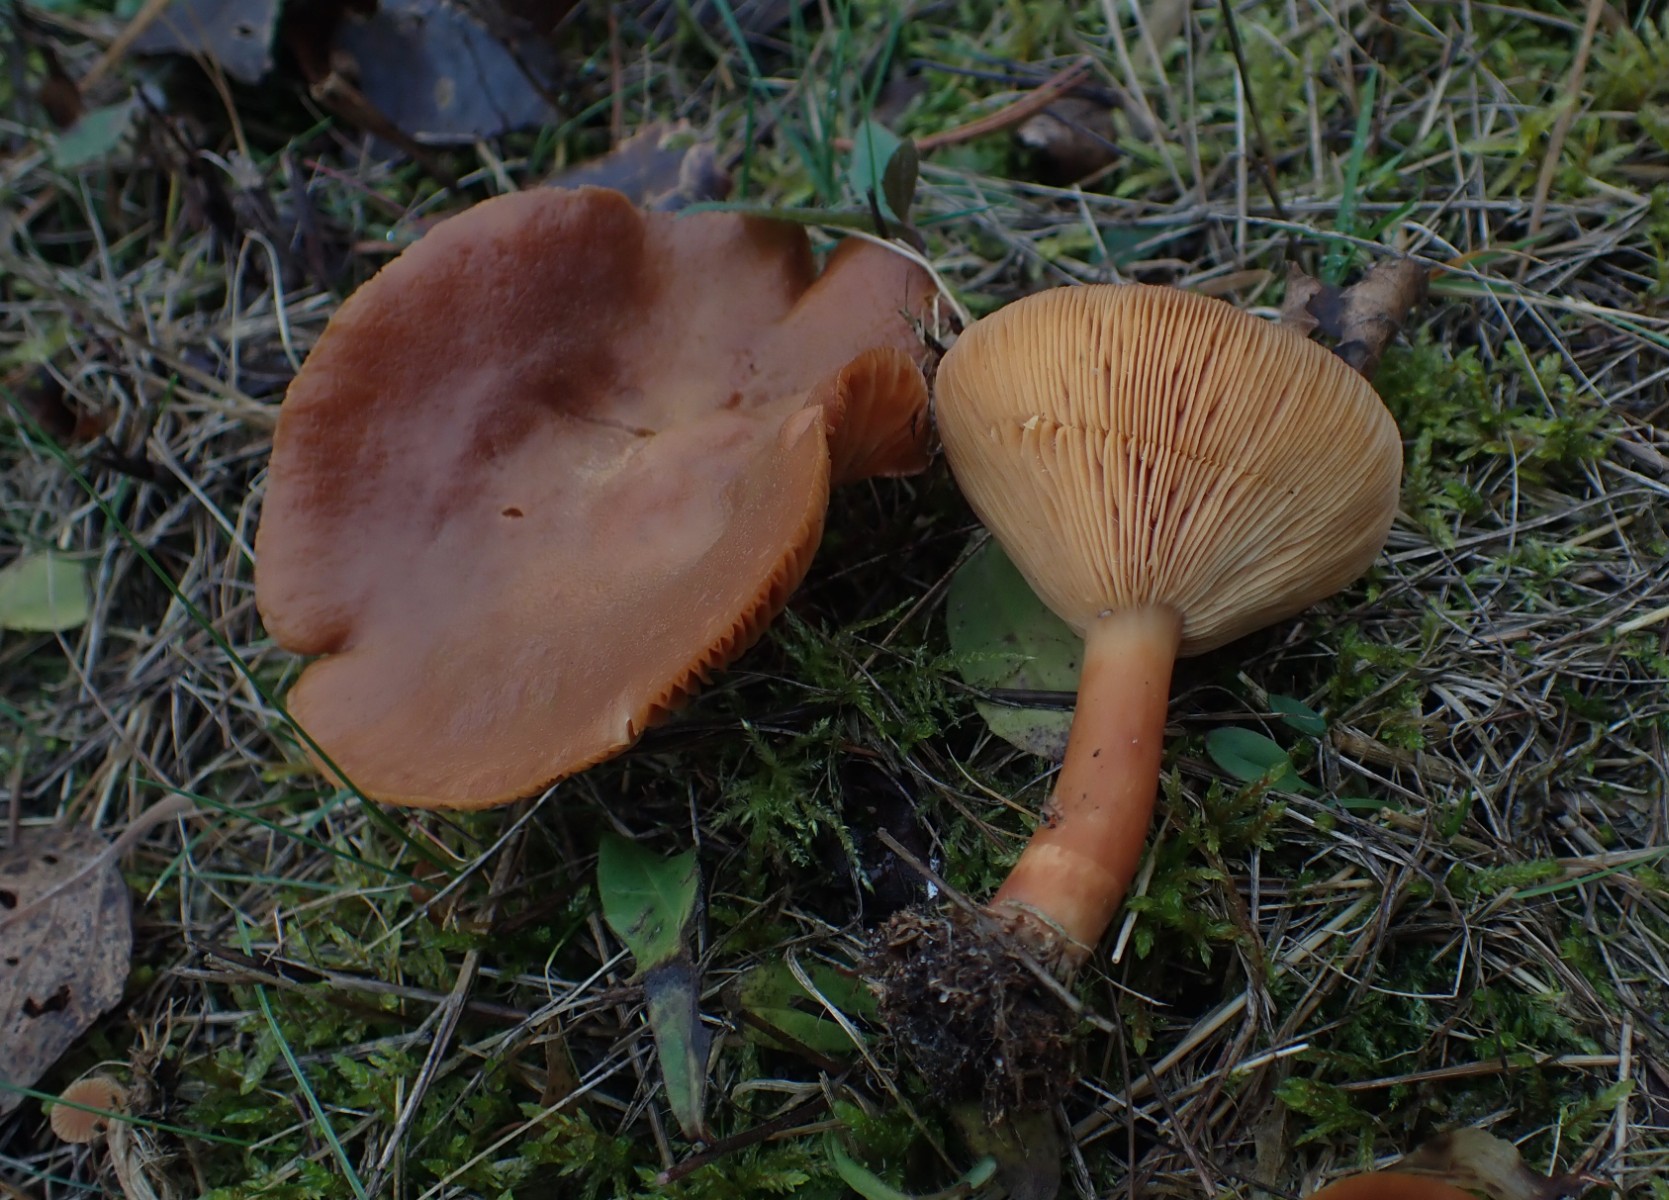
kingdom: Fungi
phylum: Basidiomycota
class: Agaricomycetes
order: Russulales
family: Russulaceae
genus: Lactarius
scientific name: Lactarius helvus
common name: mose-mælkehat
